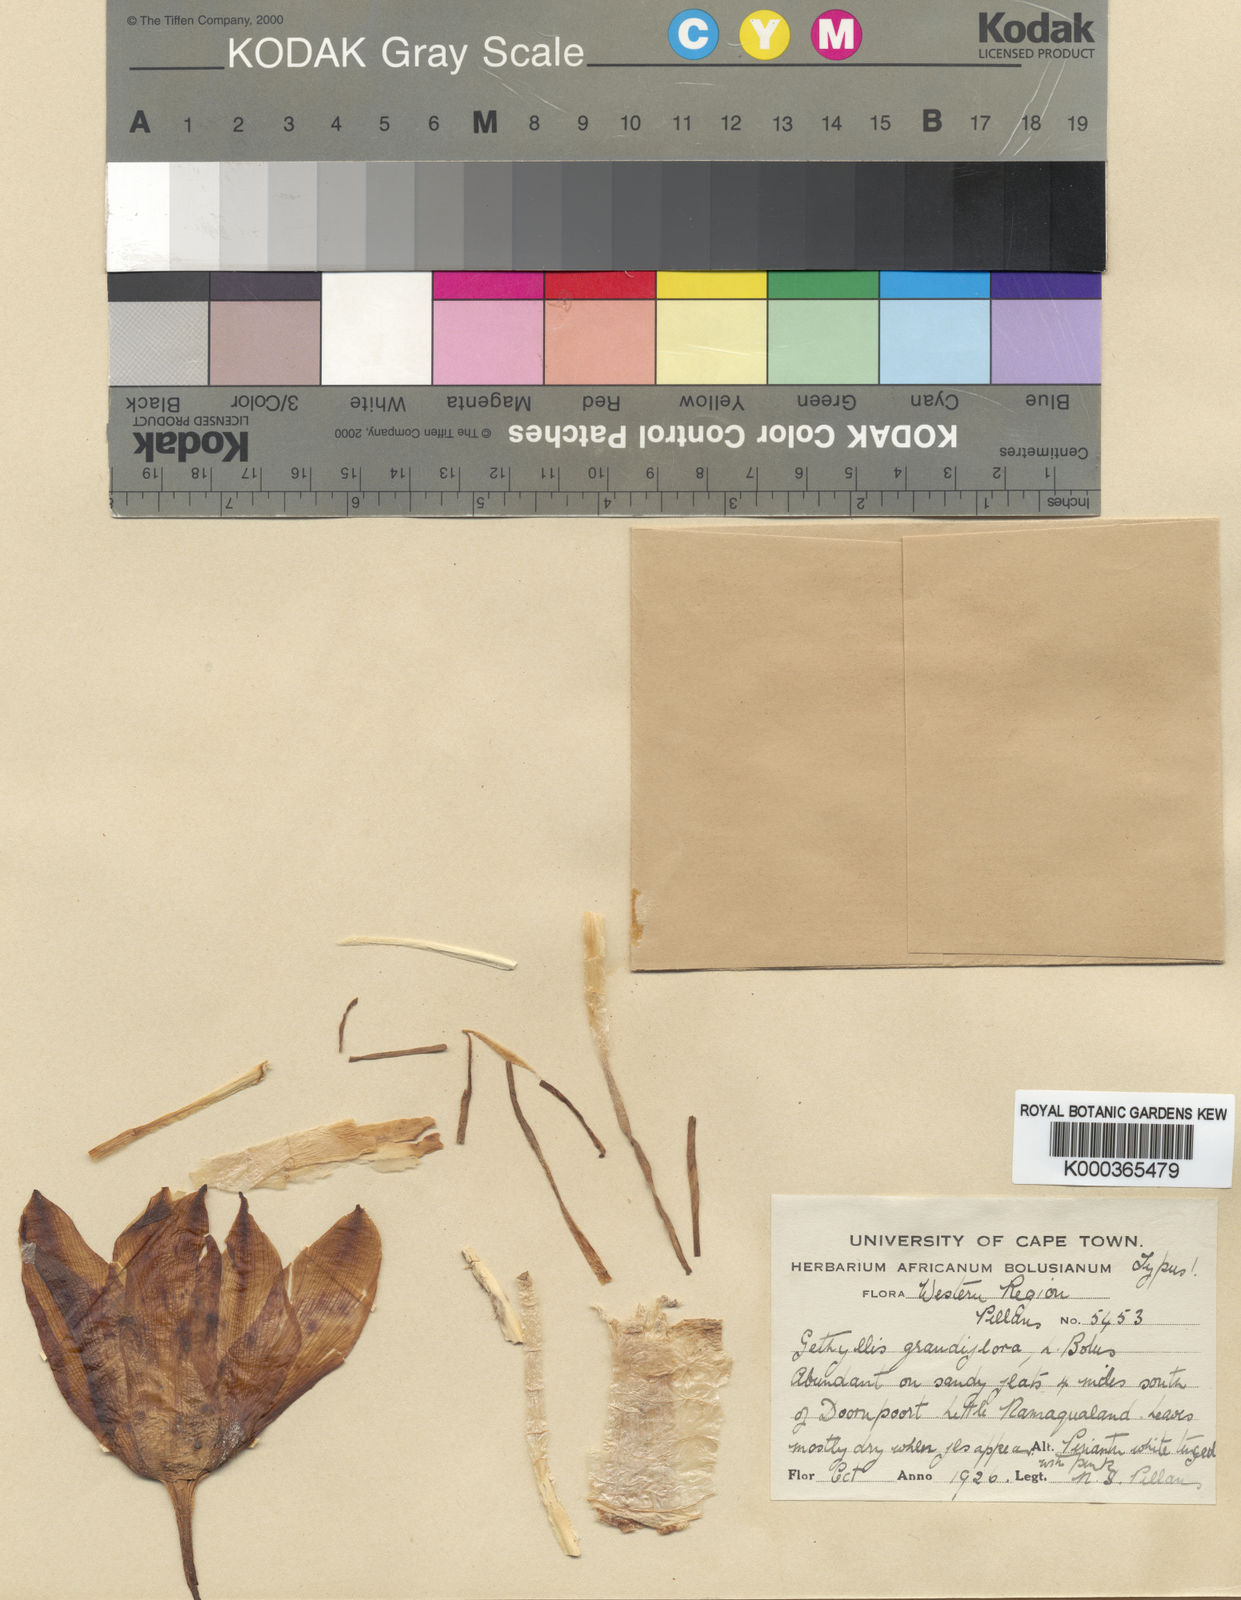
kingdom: Plantae
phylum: Tracheophyta
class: Liliopsida
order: Asparagales
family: Amaryllidaceae
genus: Gethyllis
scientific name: Gethyllis grandiflora
